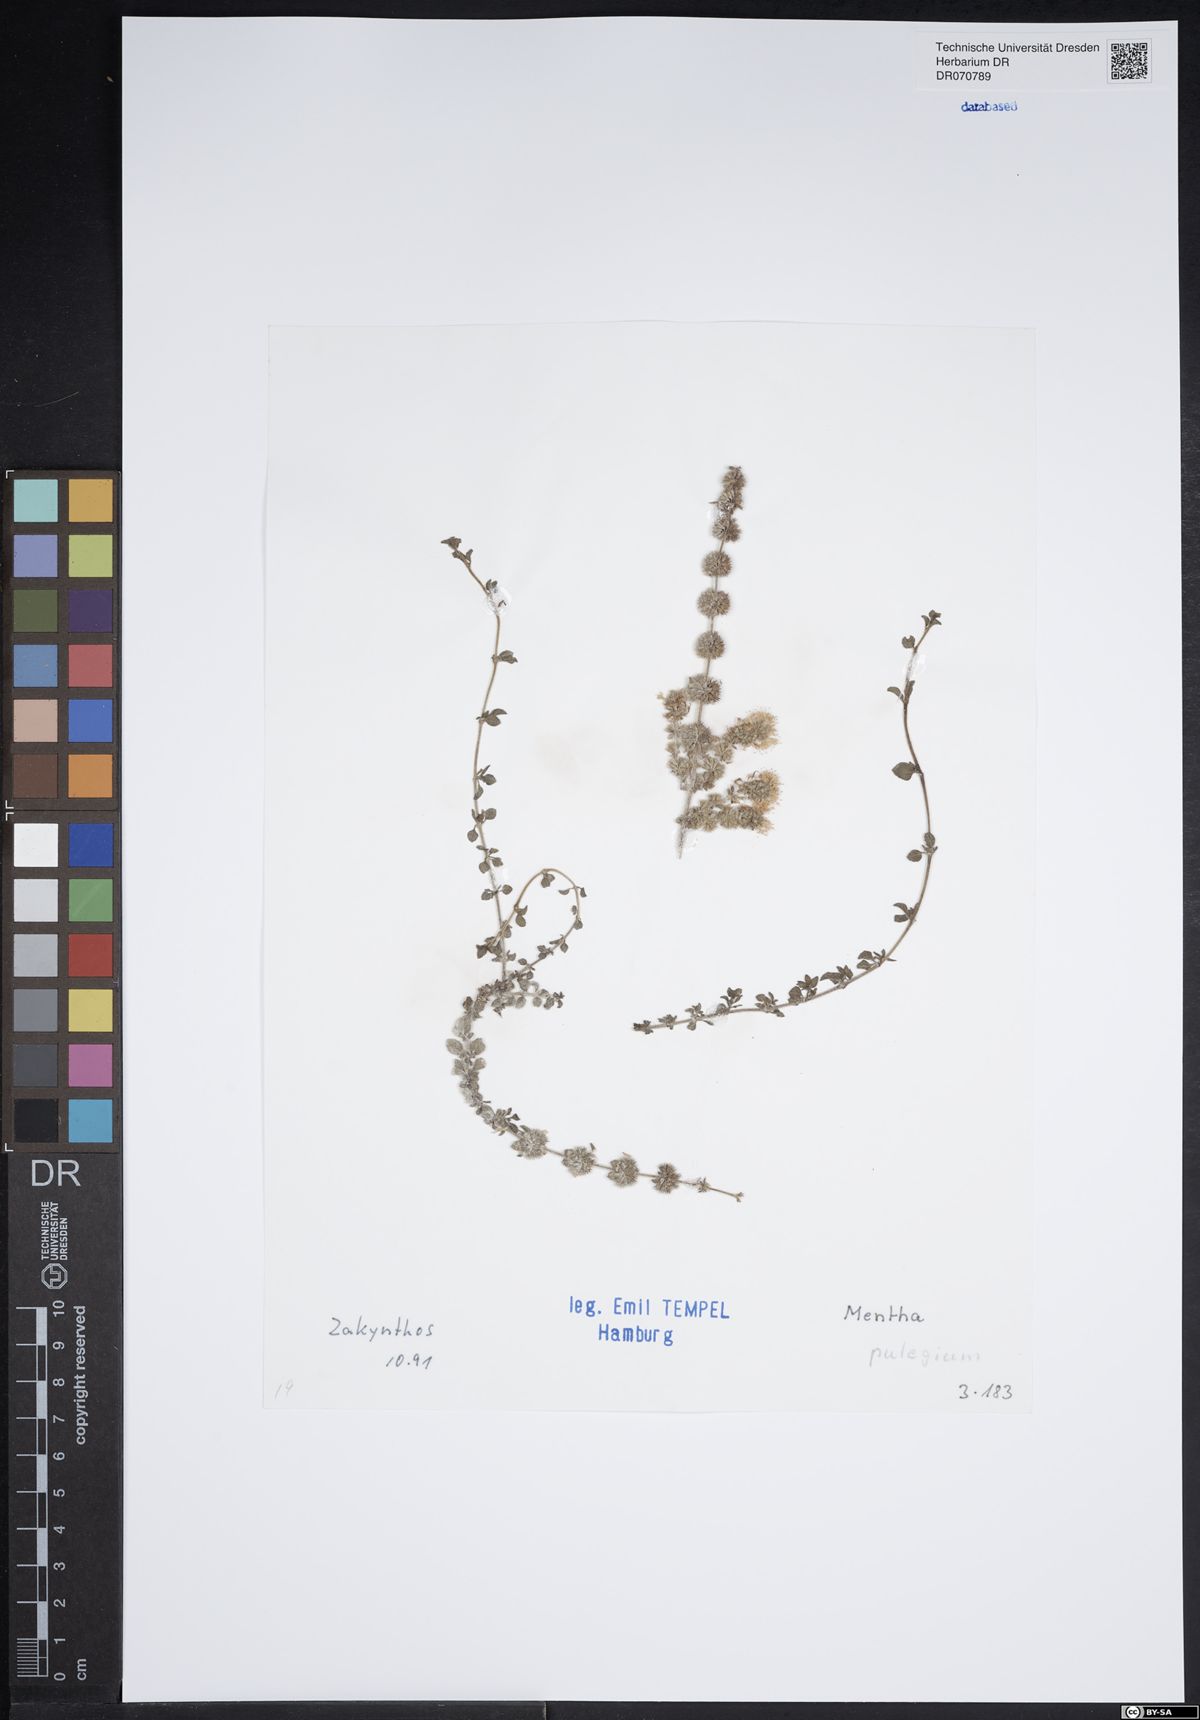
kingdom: Plantae
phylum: Tracheophyta
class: Magnoliopsida
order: Lamiales
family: Lamiaceae
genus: Mentha
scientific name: Mentha pulegium
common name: Pennyroyal
